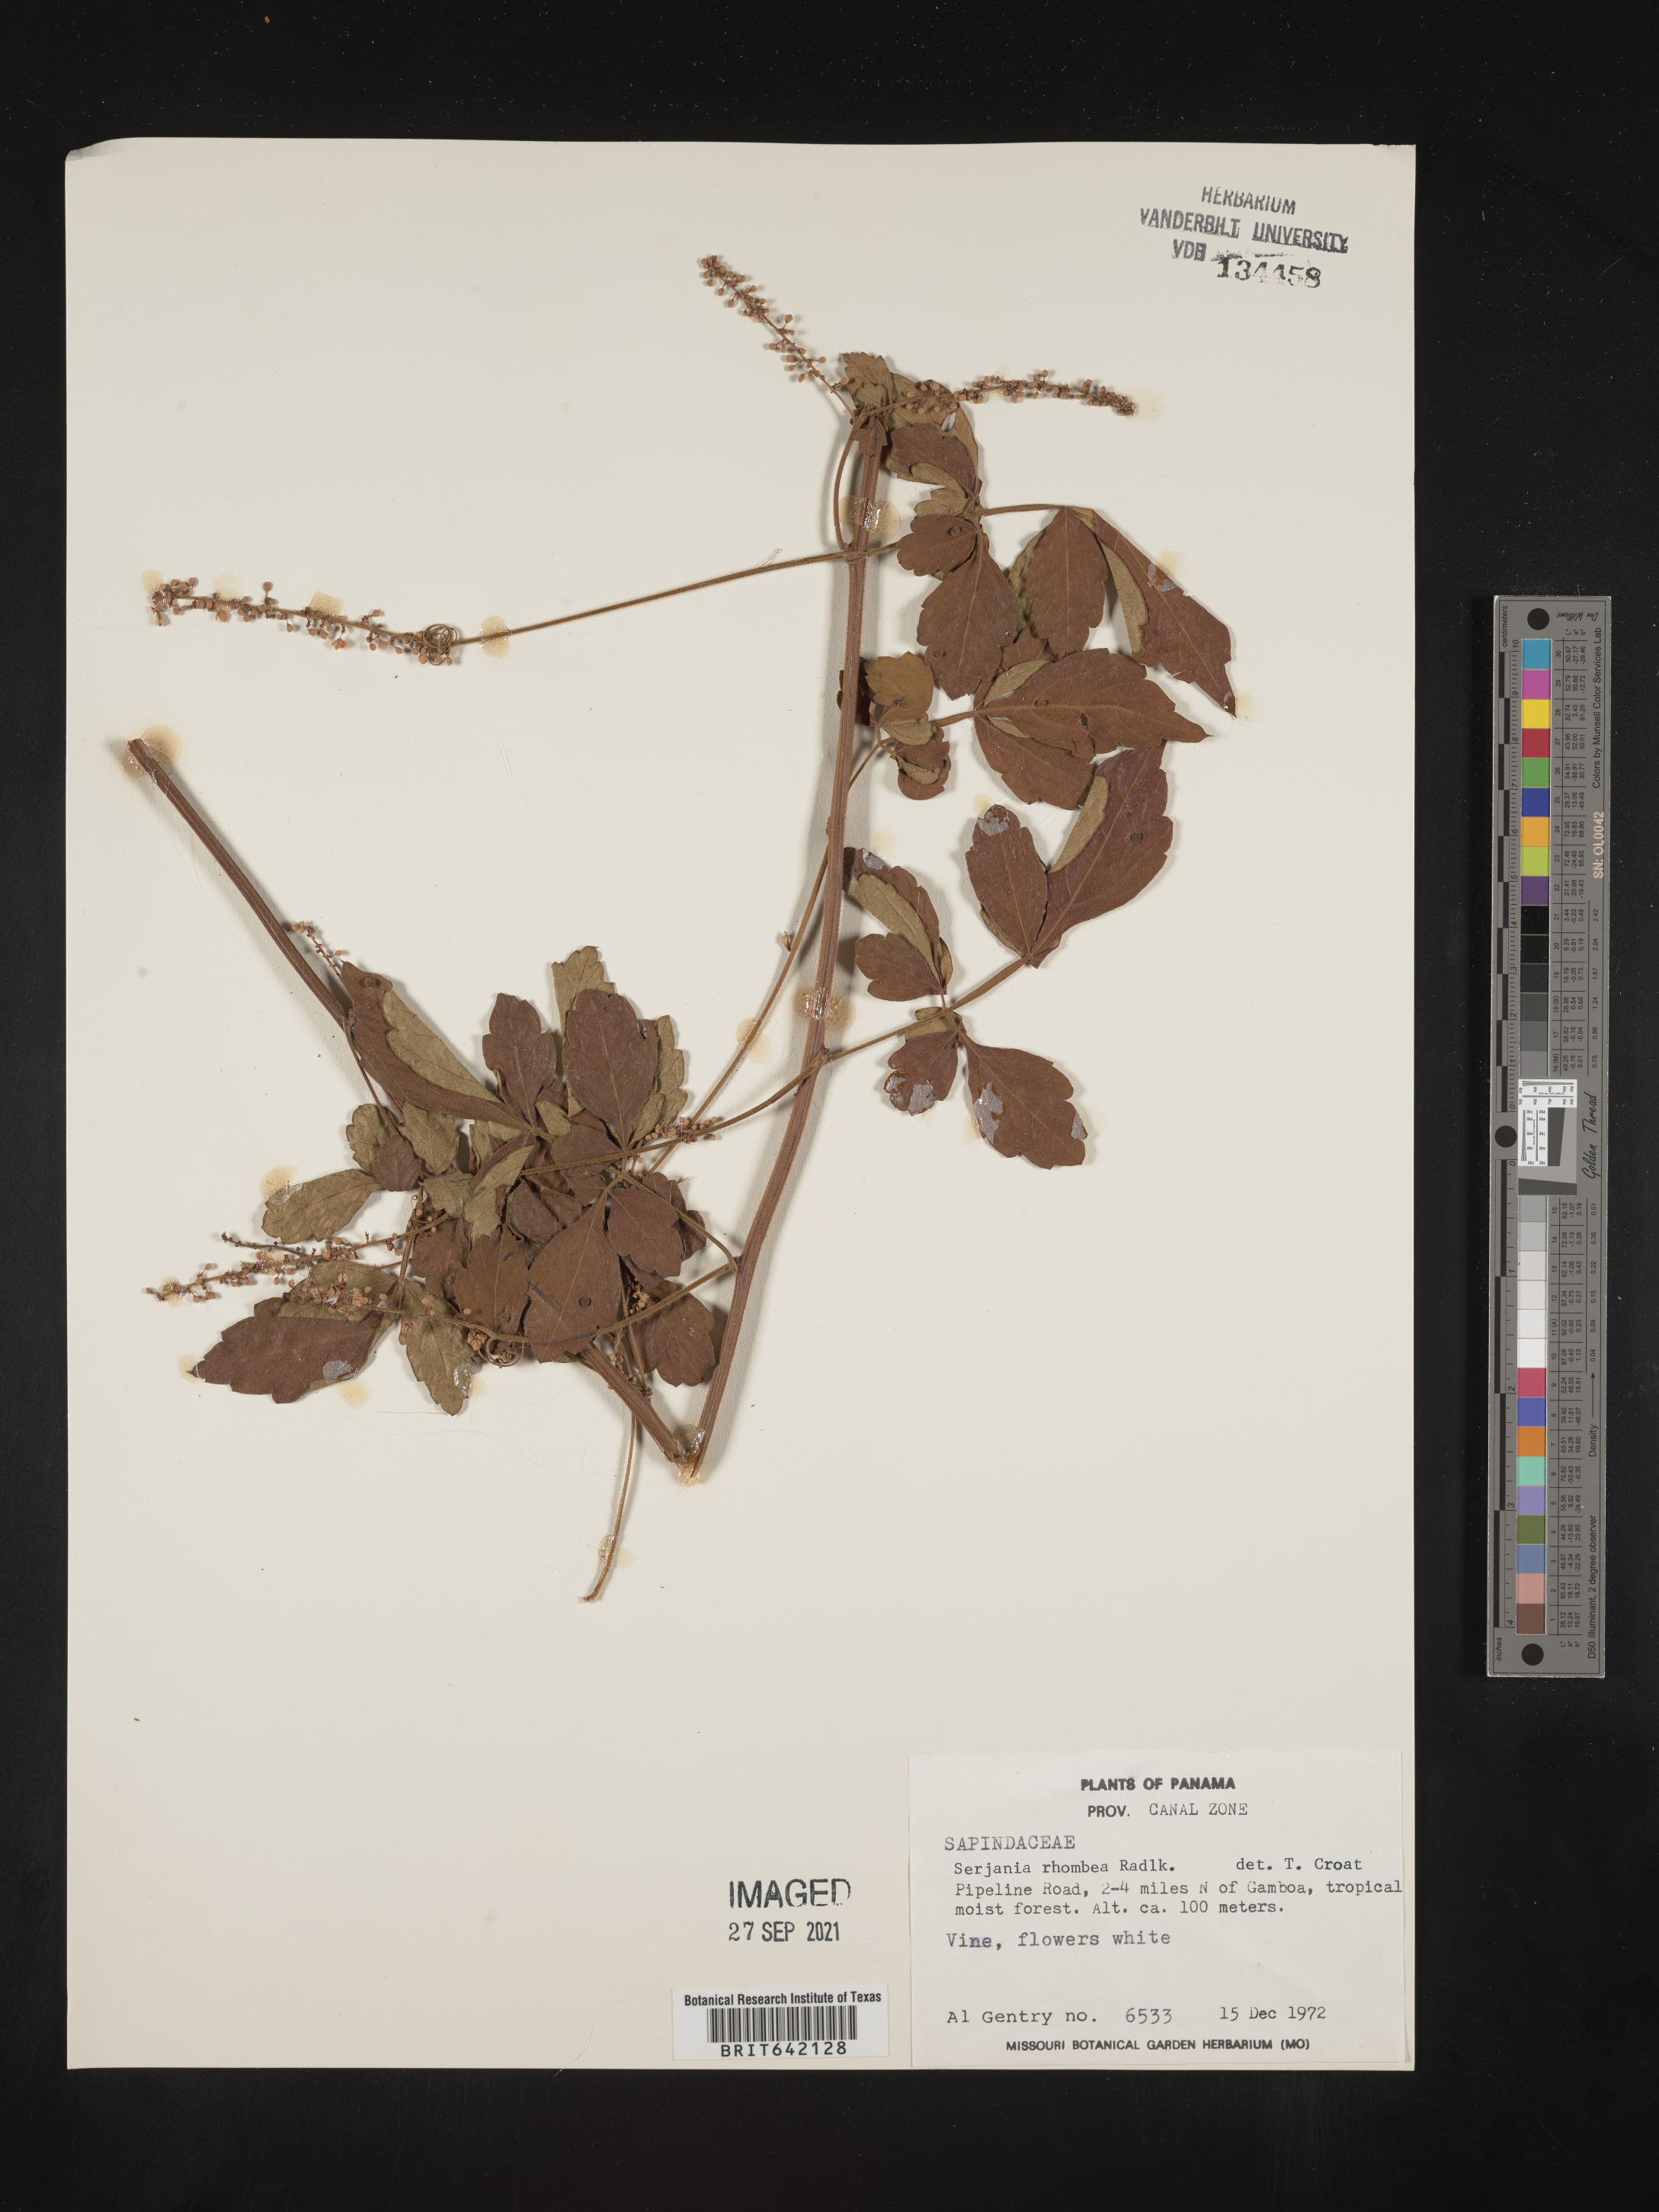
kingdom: Plantae
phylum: Tracheophyta
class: Magnoliopsida
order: Sapindales
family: Sapindaceae
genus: Serjania
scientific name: Serjania
